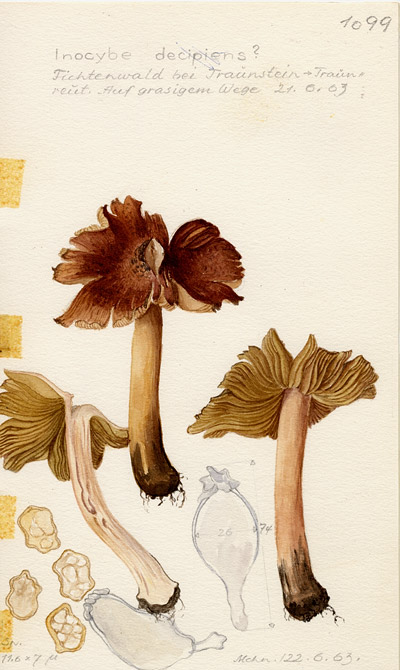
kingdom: Fungi
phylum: Basidiomycota
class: Agaricomycetes
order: Agaricales
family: Inocybaceae
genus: Inocybe
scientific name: Inocybe decipiens
